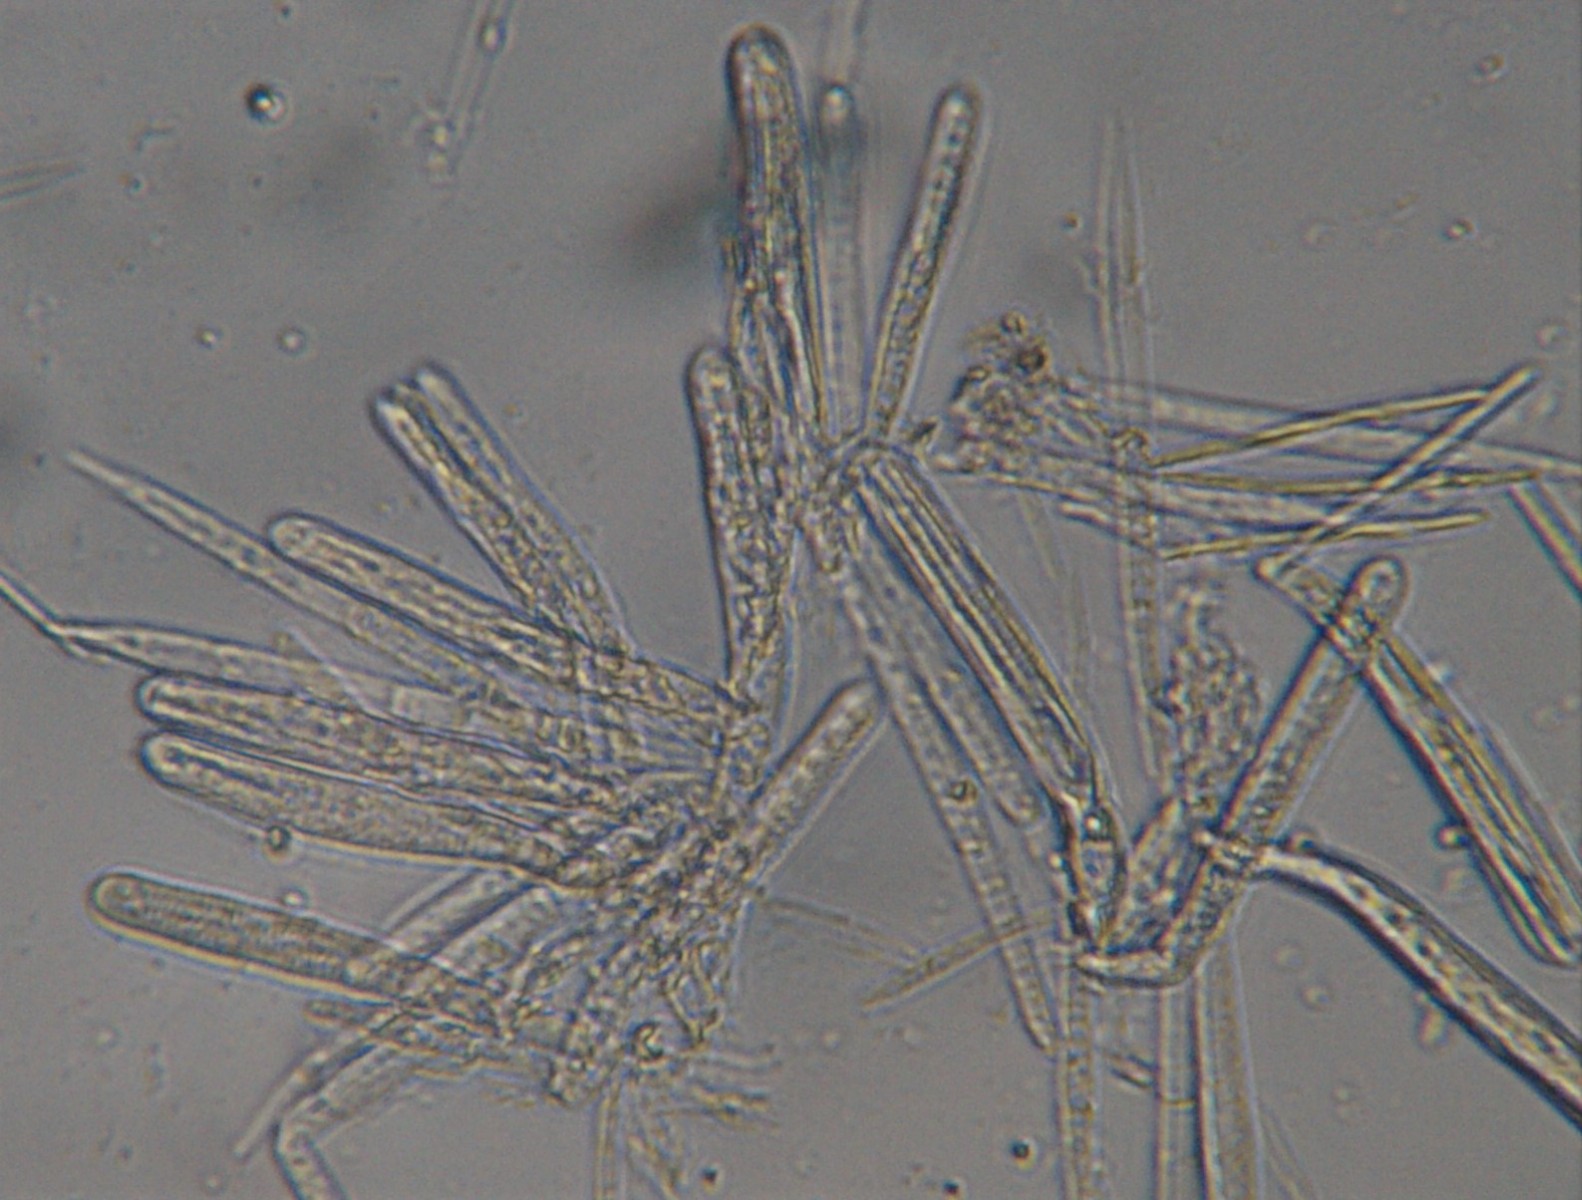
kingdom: Fungi
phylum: Ascomycota
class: Leotiomycetes
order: Helotiales
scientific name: Helotiales
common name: stilkskiveordenen
